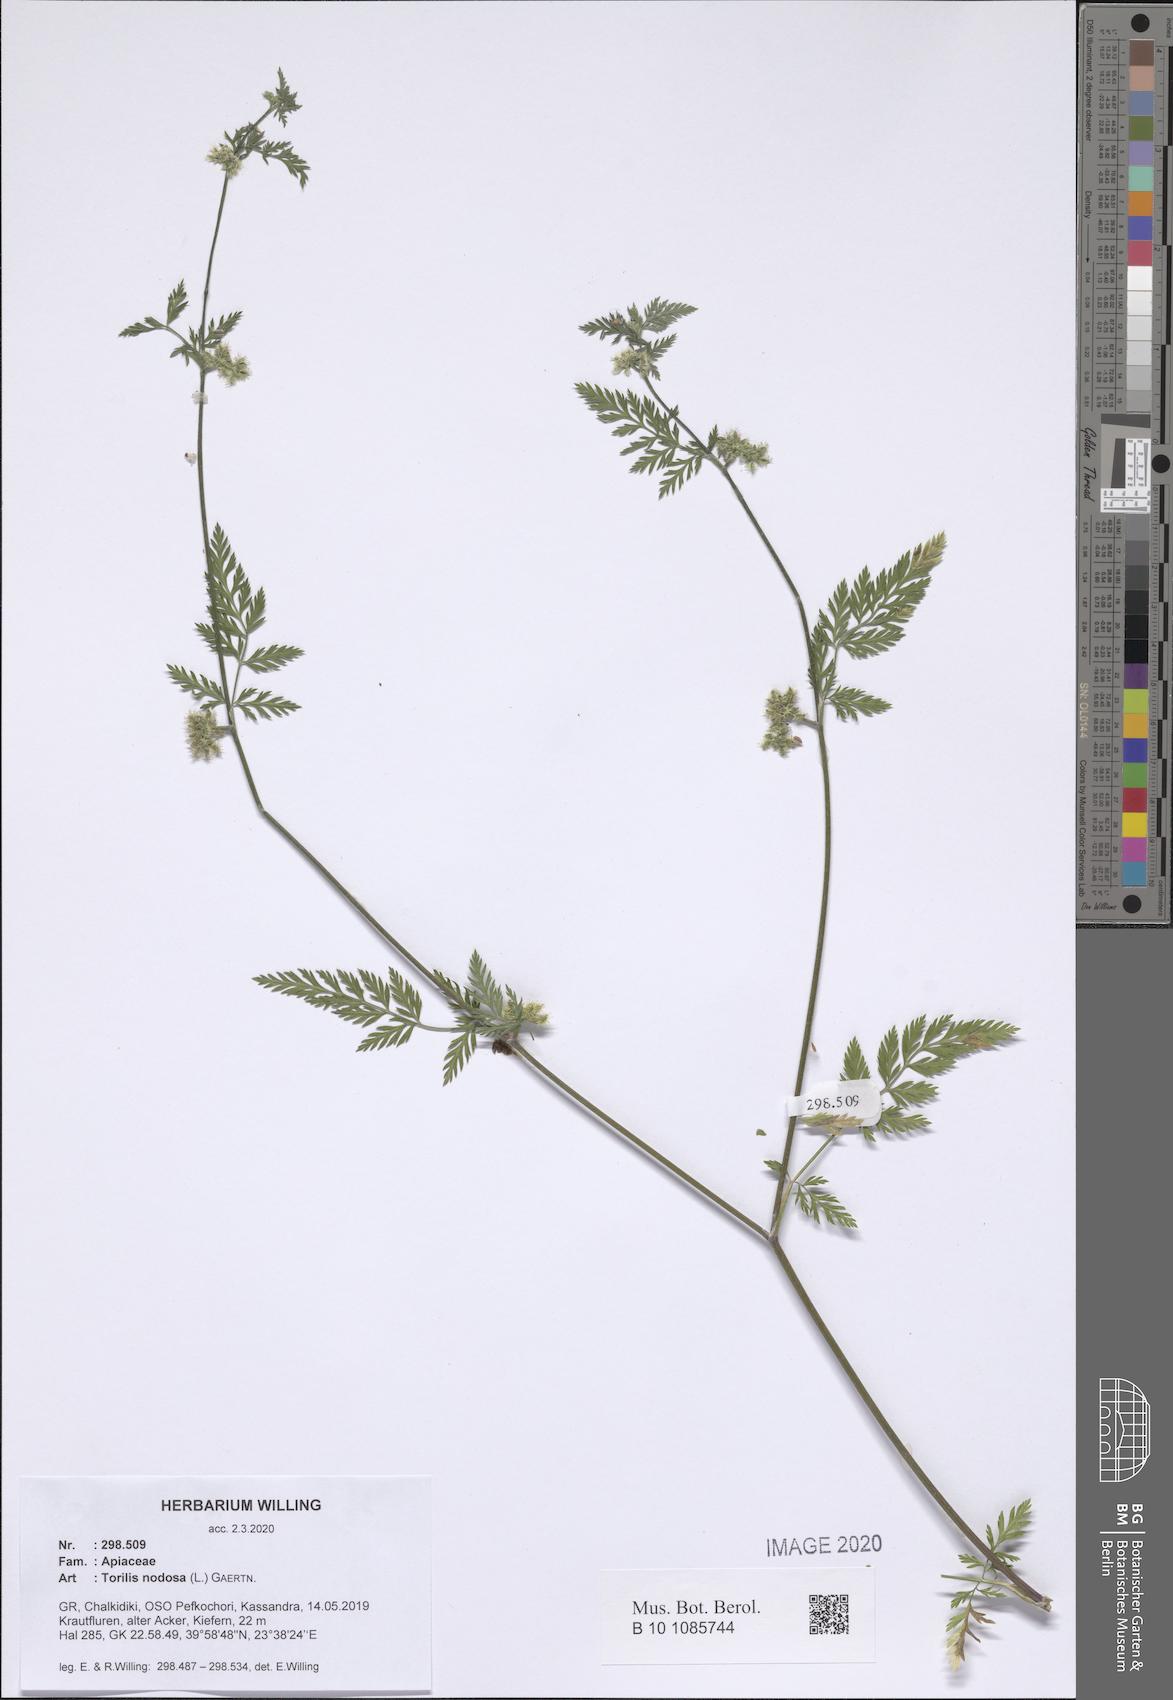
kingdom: Plantae
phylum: Tracheophyta
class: Magnoliopsida
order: Apiales
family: Apiaceae
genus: Torilis
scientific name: Torilis nodosa
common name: Knotted hedge-parsley
